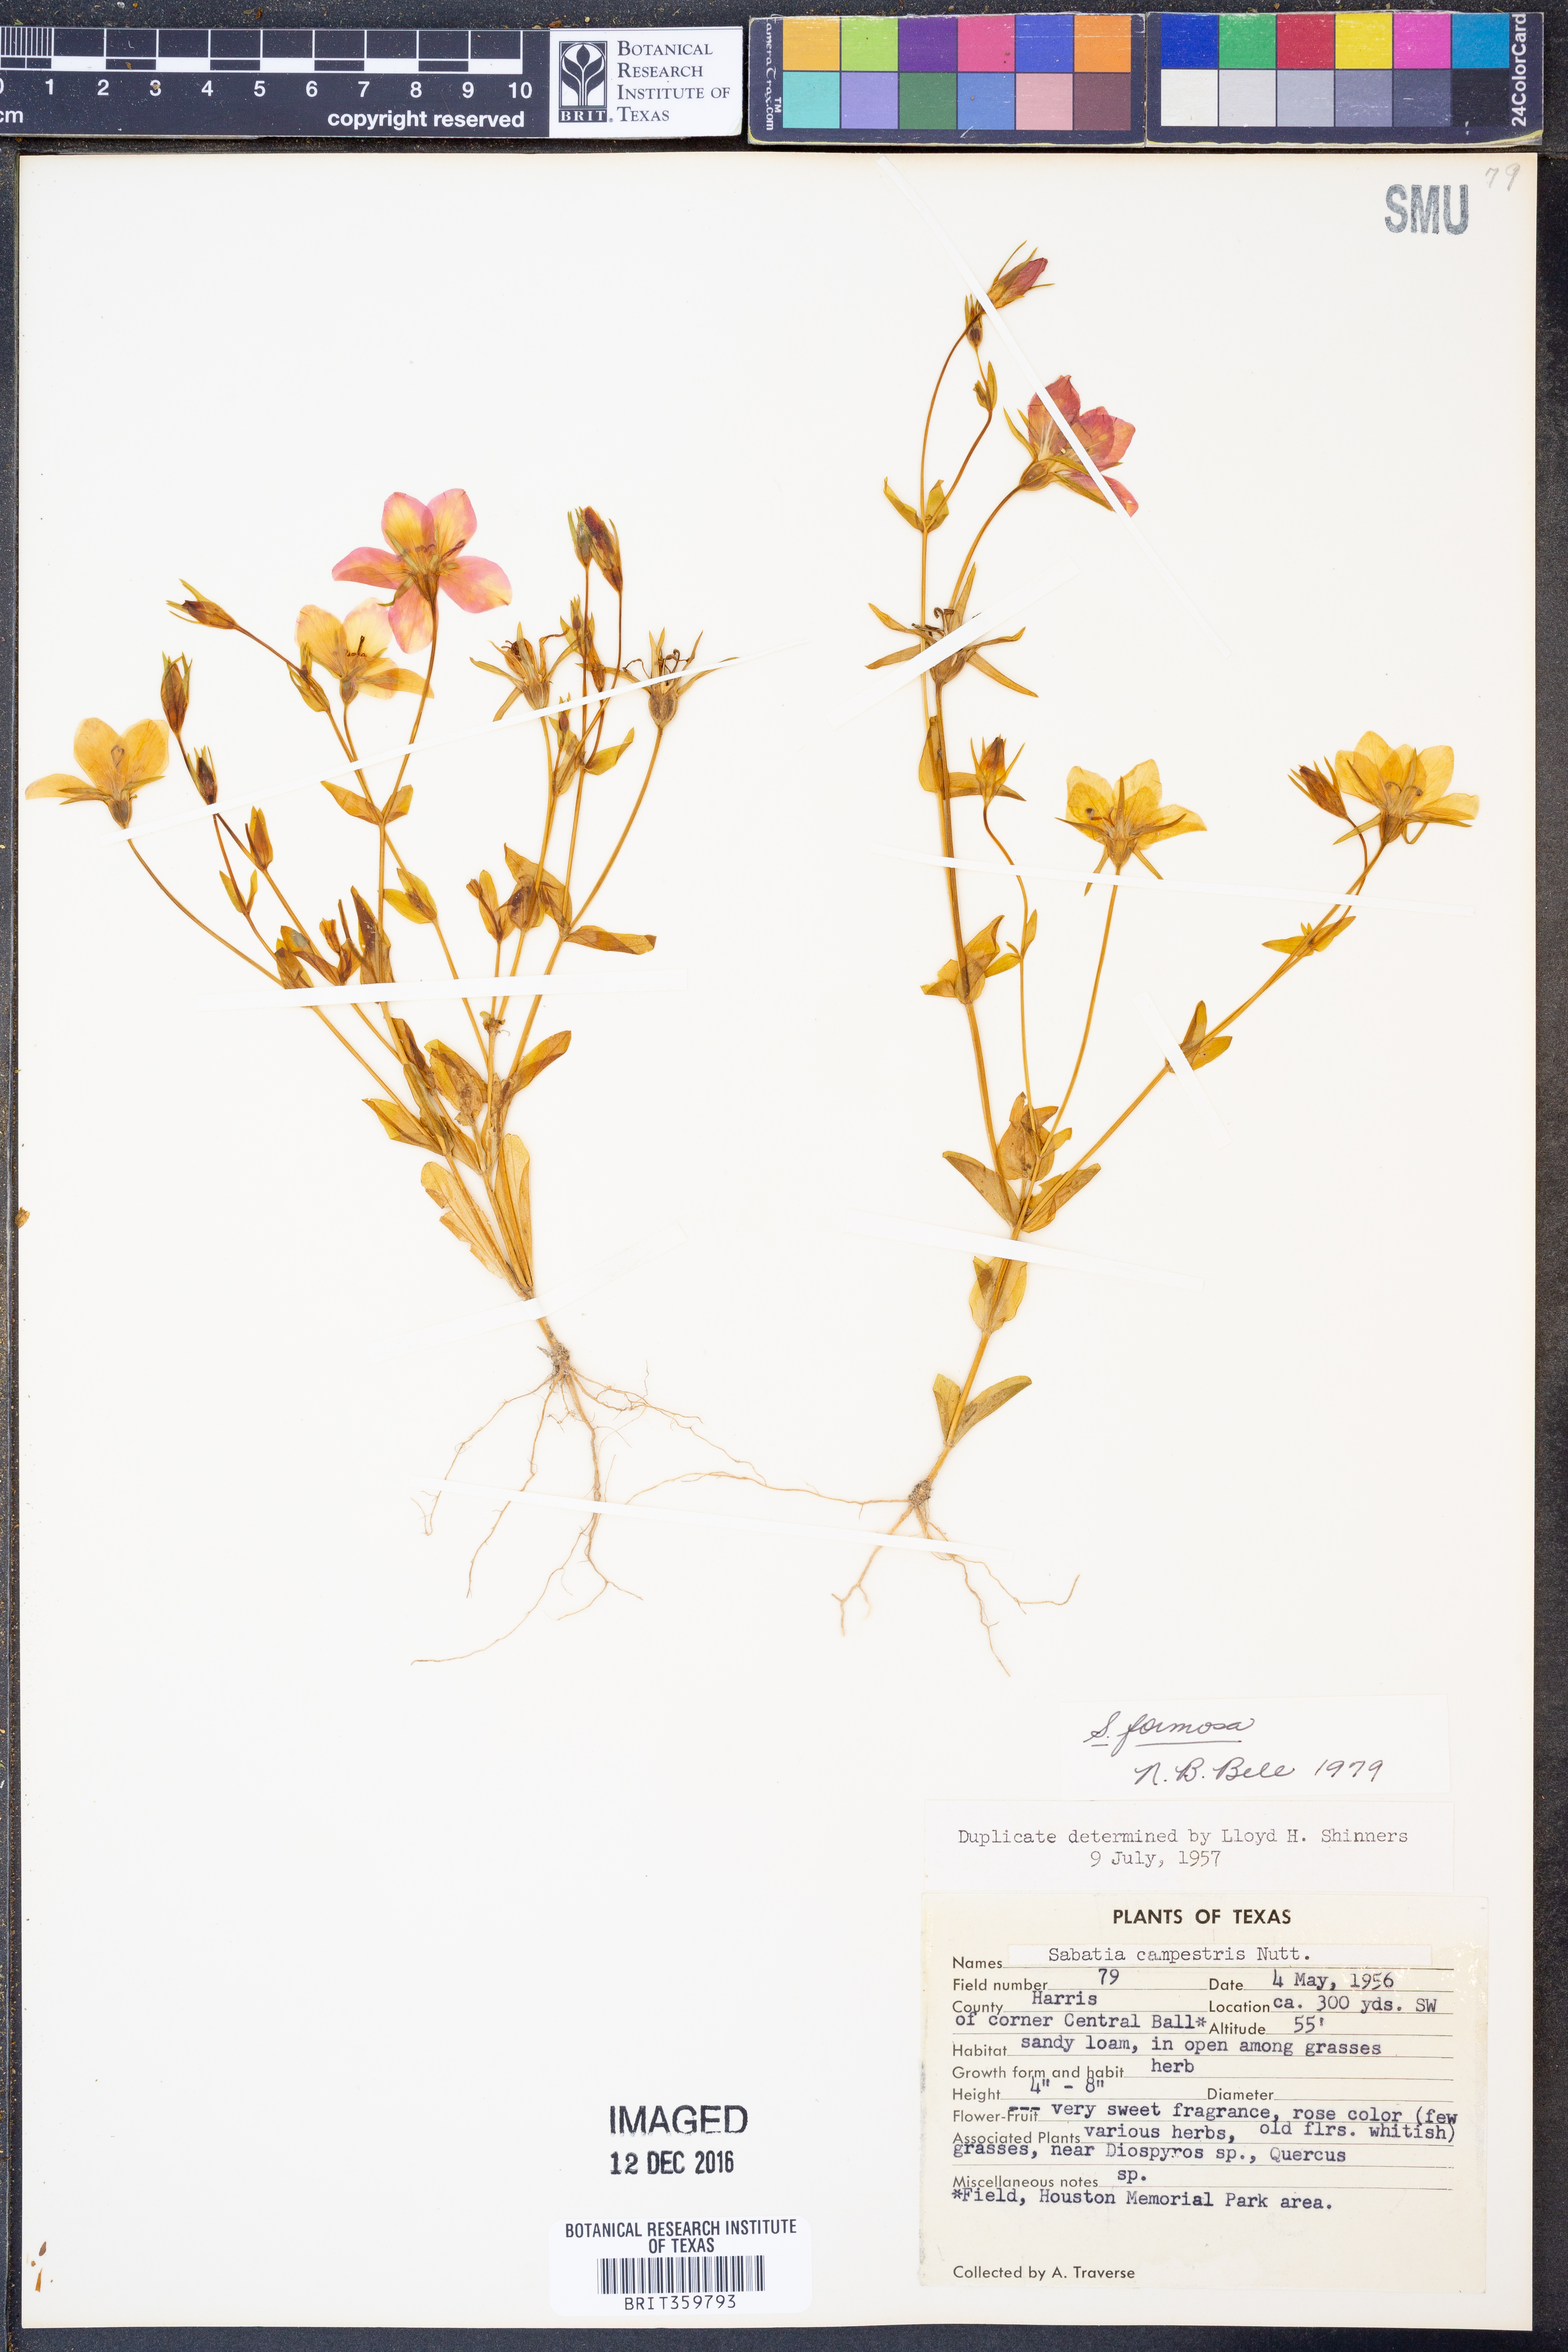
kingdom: Plantae
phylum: Tracheophyta
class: Magnoliopsida
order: Gentianales
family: Gentianaceae
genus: Sabatia
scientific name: Sabatia formosa
